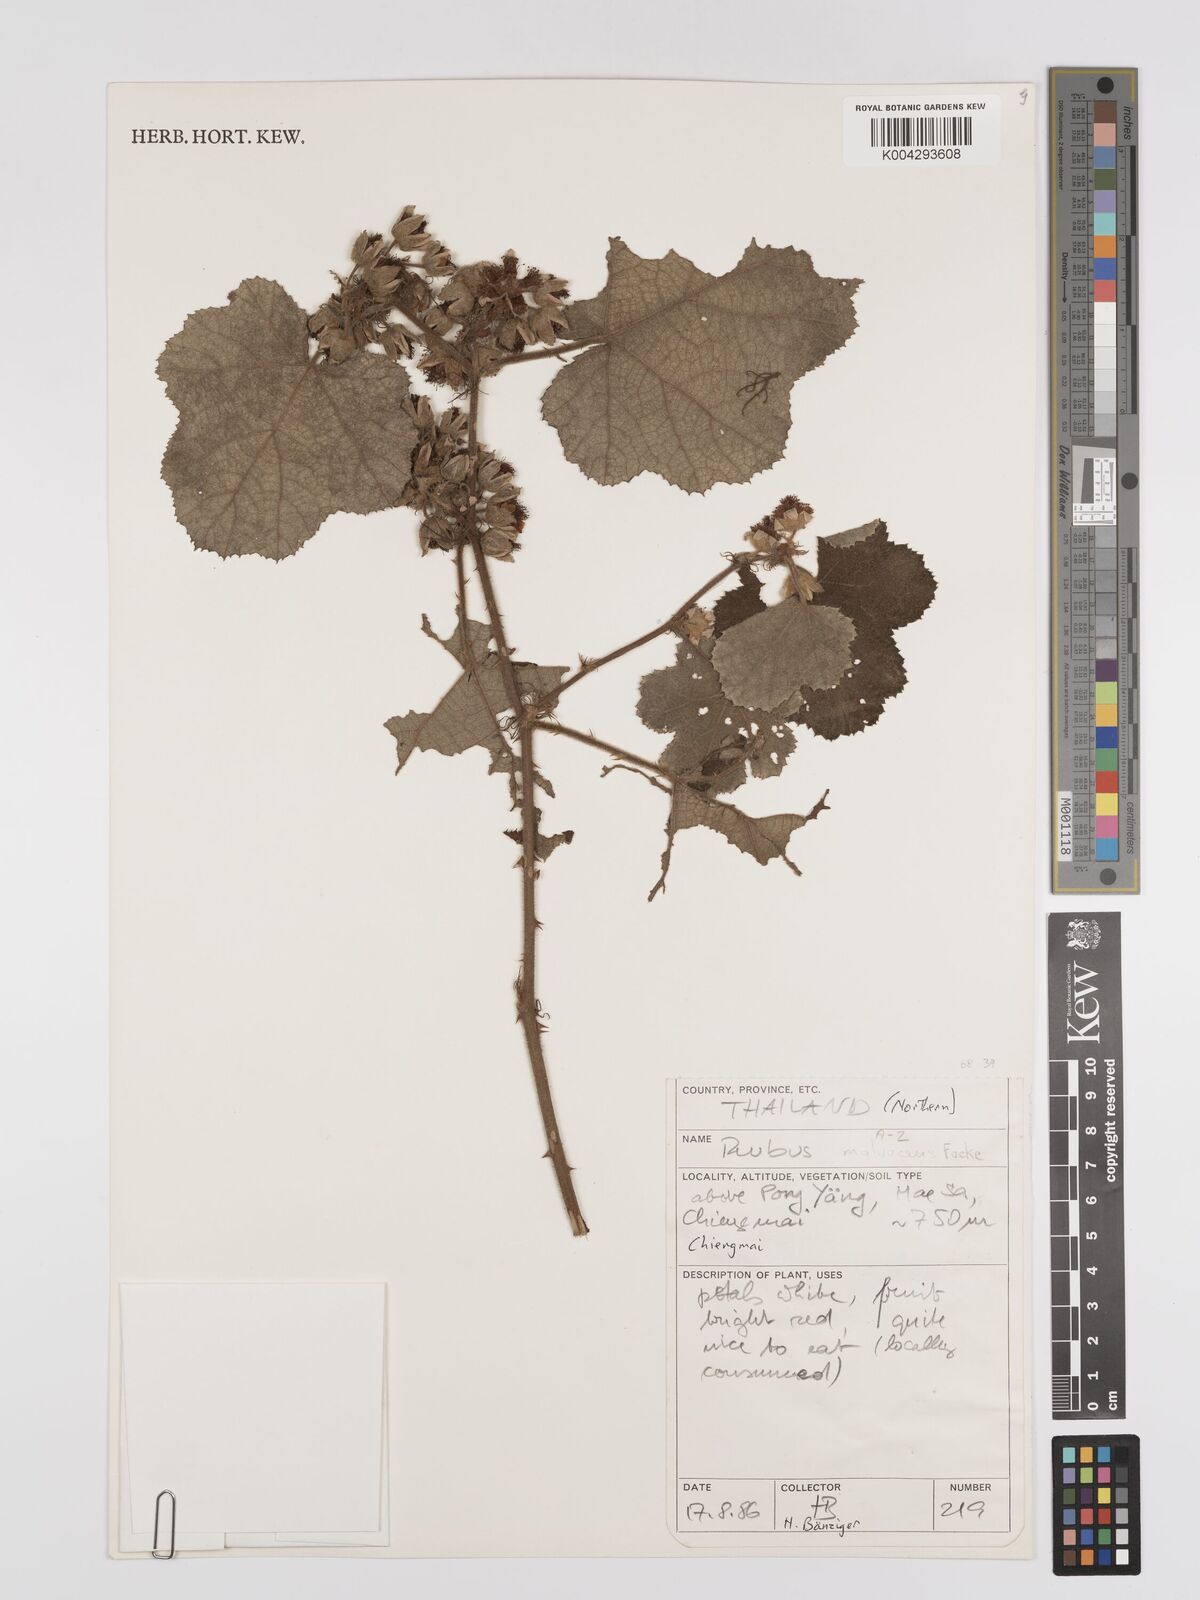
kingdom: Plantae
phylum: Tracheophyta
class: Magnoliopsida
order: Rosales
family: Rosaceae
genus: Rubus
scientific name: Rubus malvaceus
